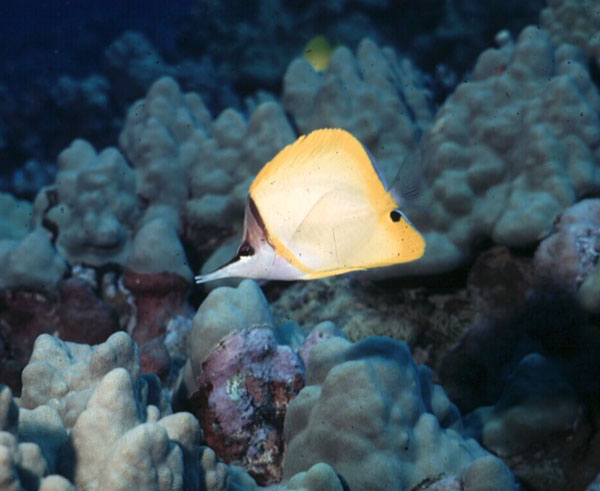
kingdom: Animalia
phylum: Chordata
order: Perciformes
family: Chaetodontidae
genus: Forcipiger
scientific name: Forcipiger flavissimus
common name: Forcepsfish
